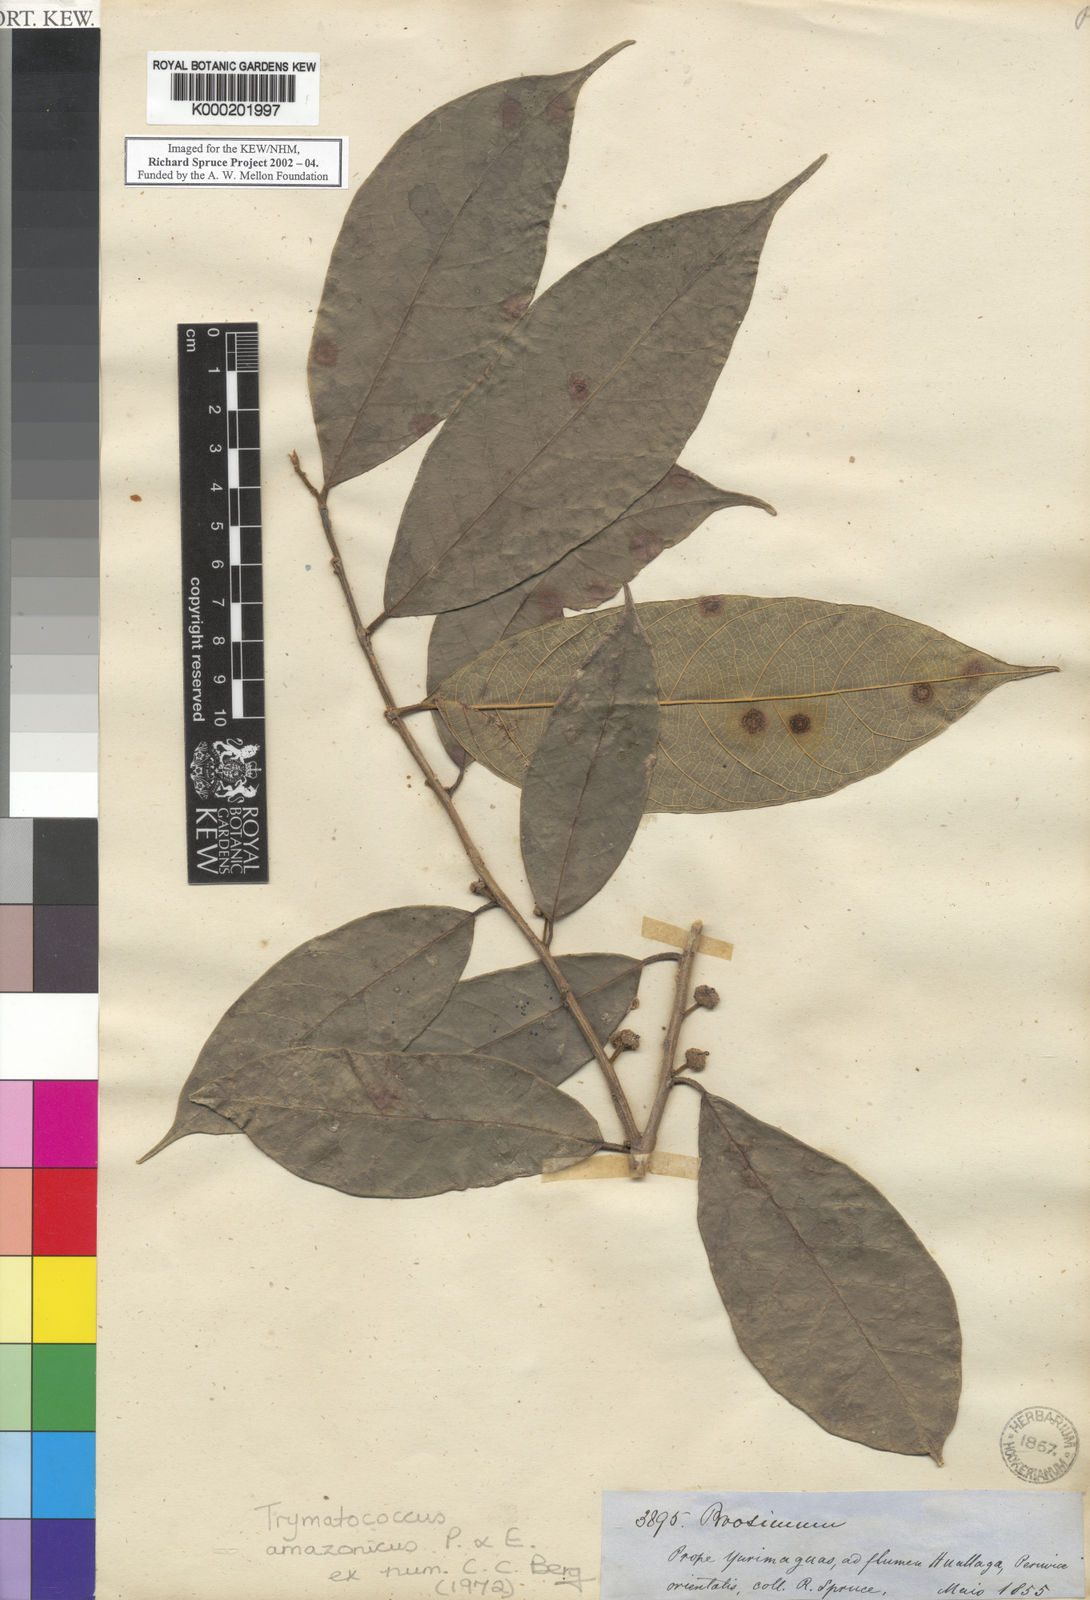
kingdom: Plantae
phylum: Tracheophyta
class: Magnoliopsida
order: Rosales
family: Moraceae
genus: Brosimum
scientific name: Brosimum amazonicum
